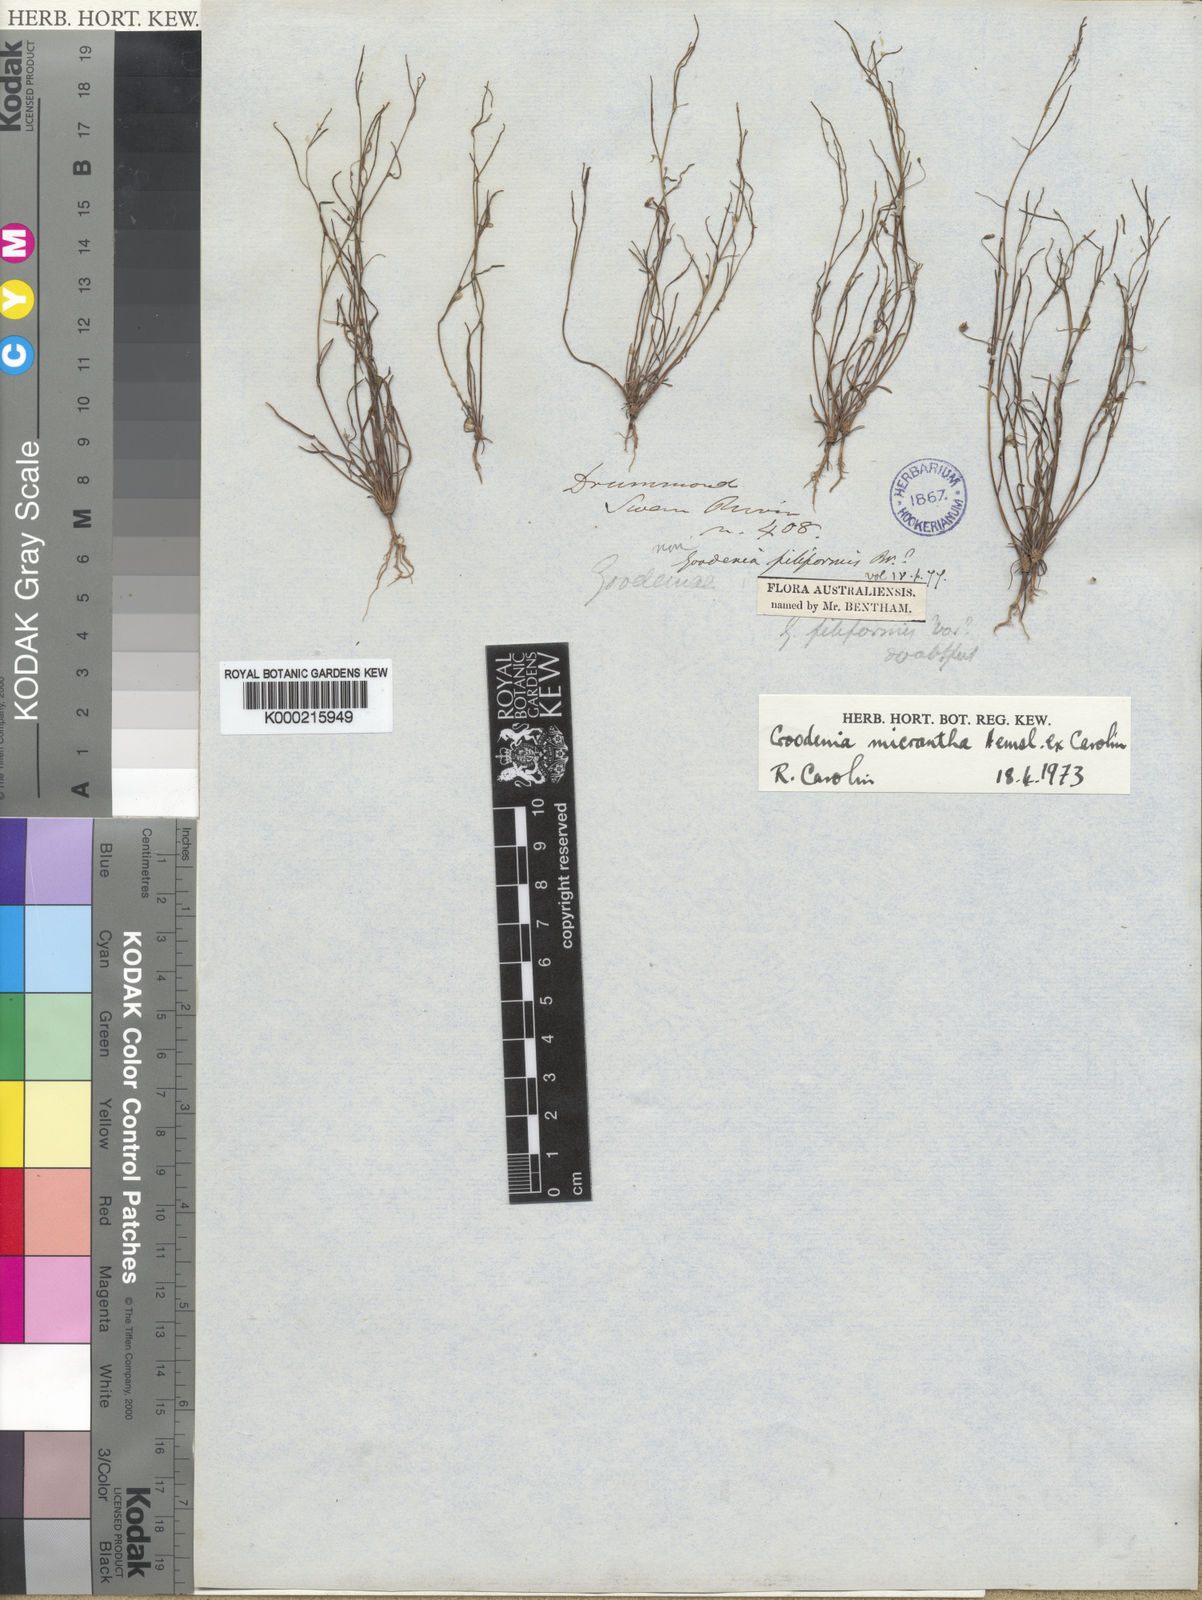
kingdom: Plantae
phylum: Tracheophyta
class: Magnoliopsida
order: Asterales
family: Goodeniaceae
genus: Goodenia
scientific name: Goodenia micrantha
